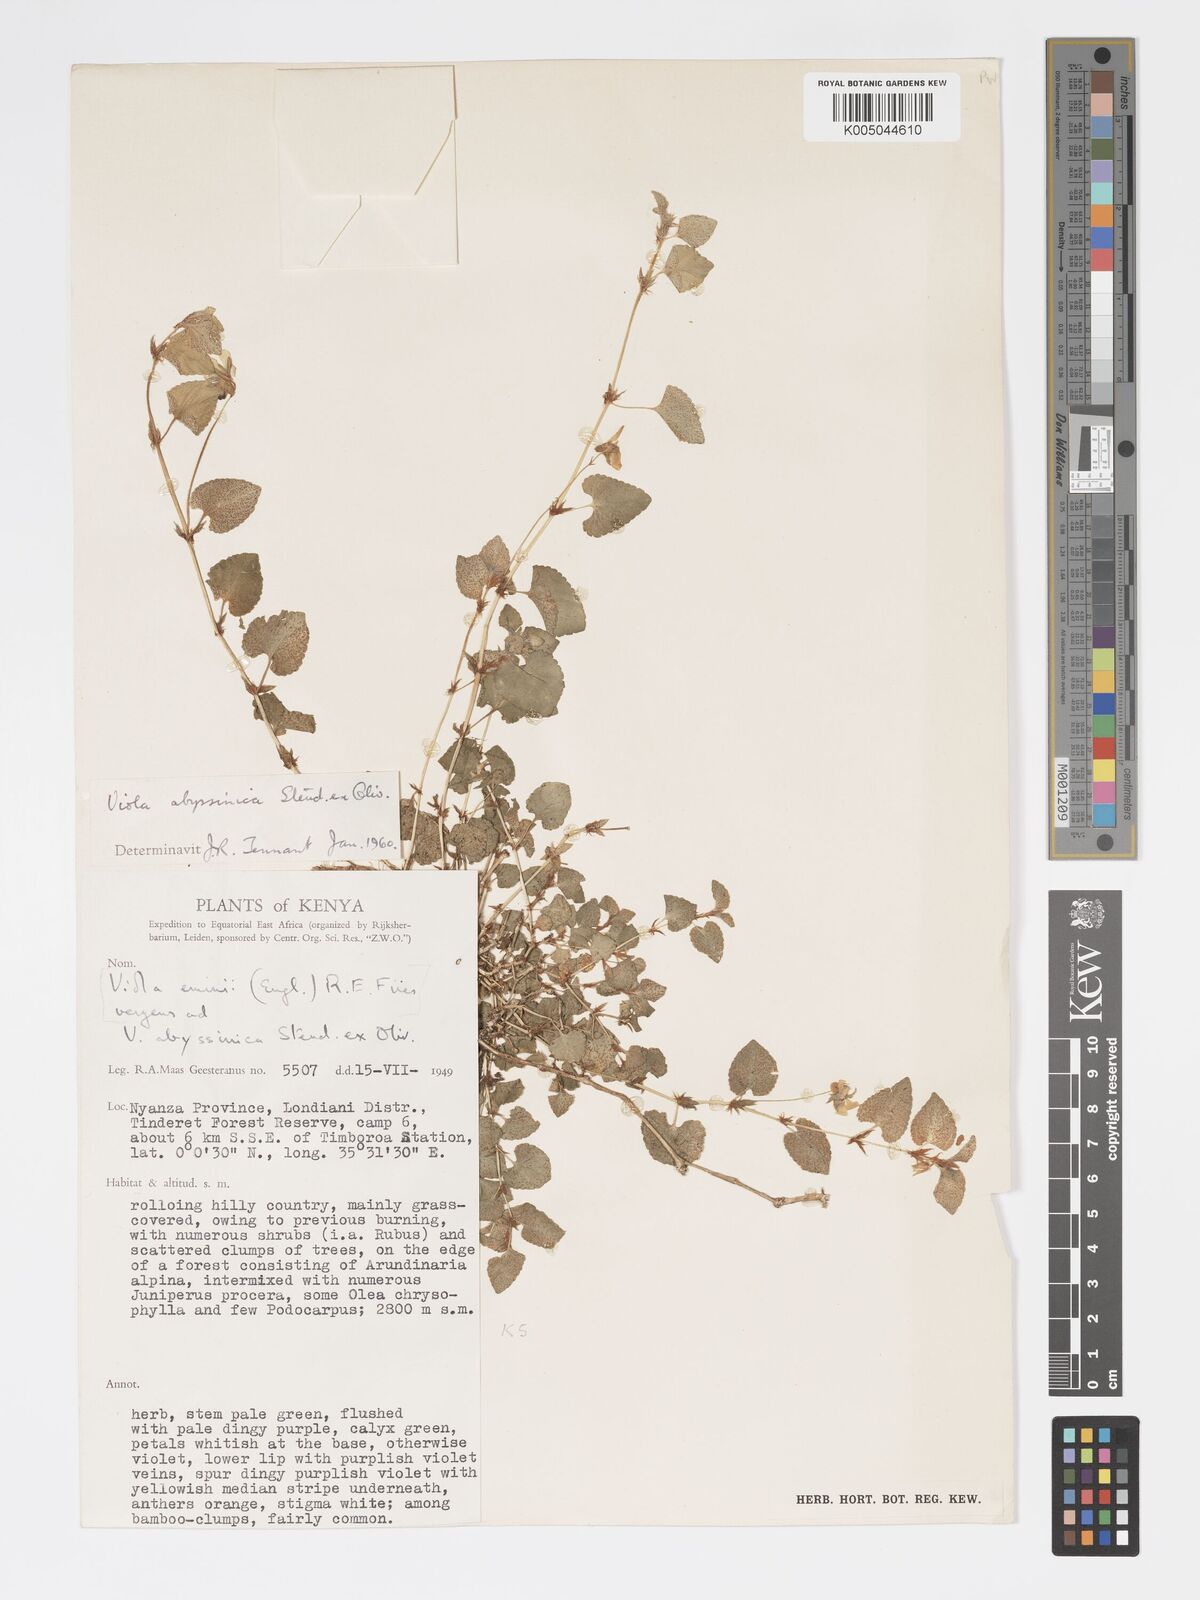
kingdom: Plantae
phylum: Tracheophyta
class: Magnoliopsida
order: Malpighiales
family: Violaceae
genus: Viola
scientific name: Viola abyssinica
